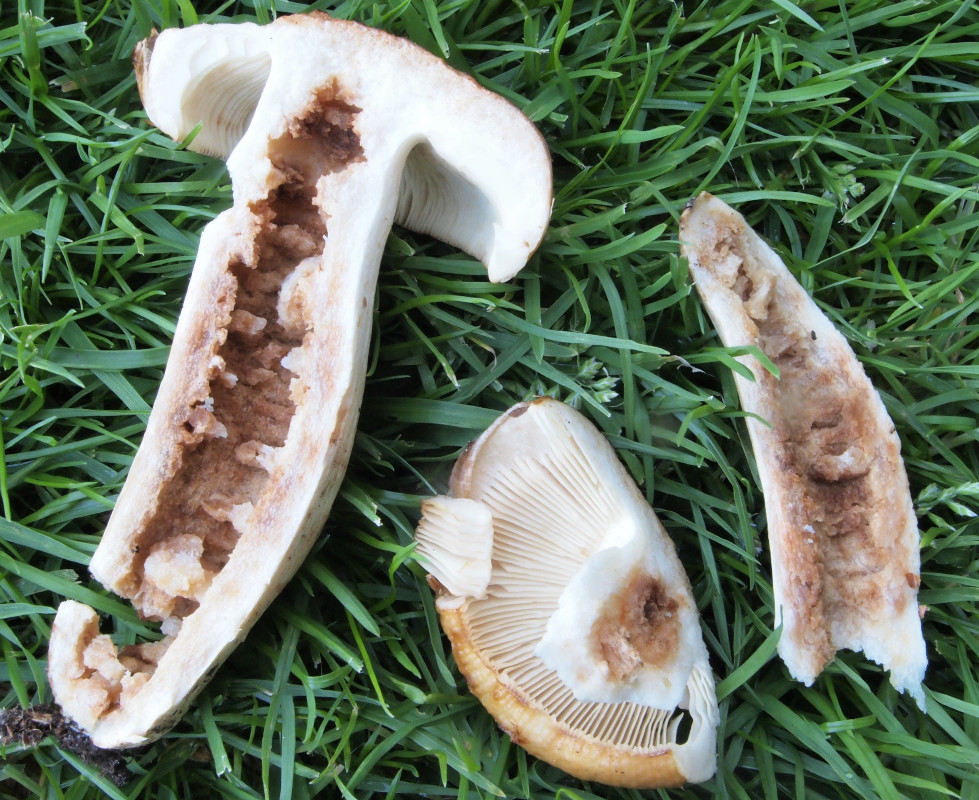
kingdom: Fungi
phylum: Basidiomycota
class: Agaricomycetes
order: Russulales
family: Russulaceae
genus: Russula
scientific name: Russula
